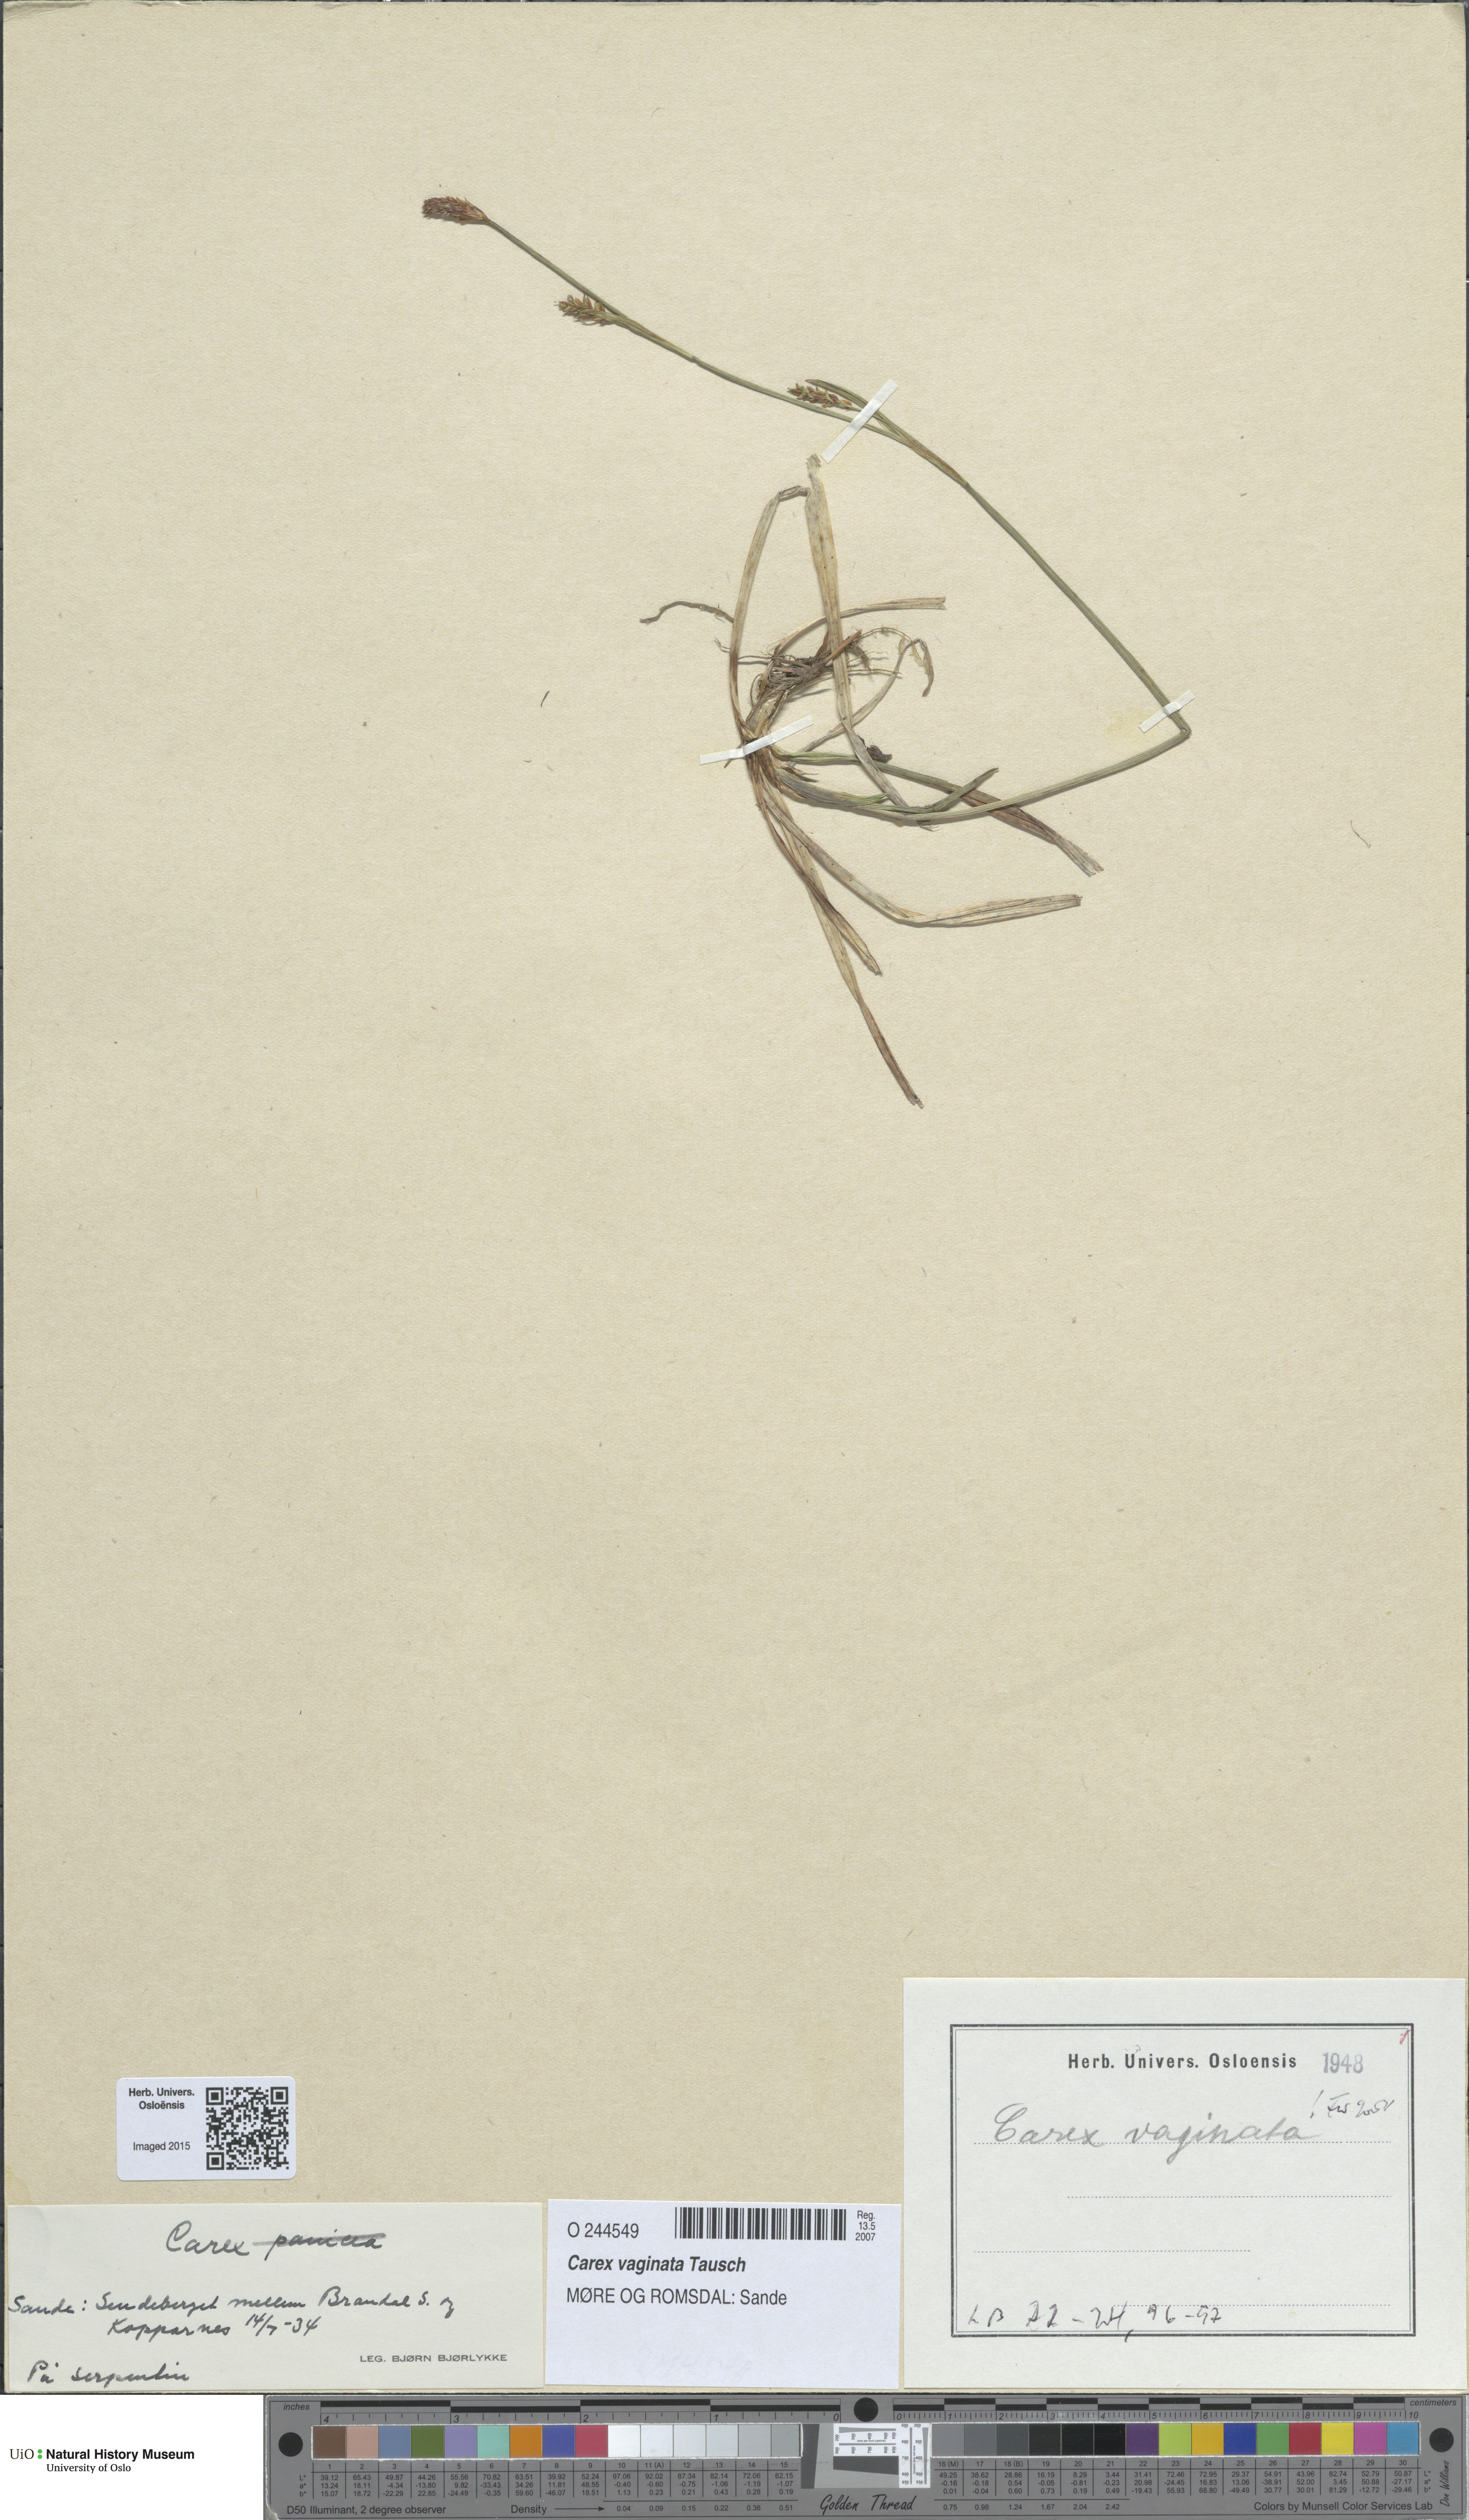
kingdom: Plantae
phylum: Tracheophyta
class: Liliopsida
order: Poales
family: Cyperaceae
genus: Carex
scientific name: Carex vaginata
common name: Sheathed sedge
